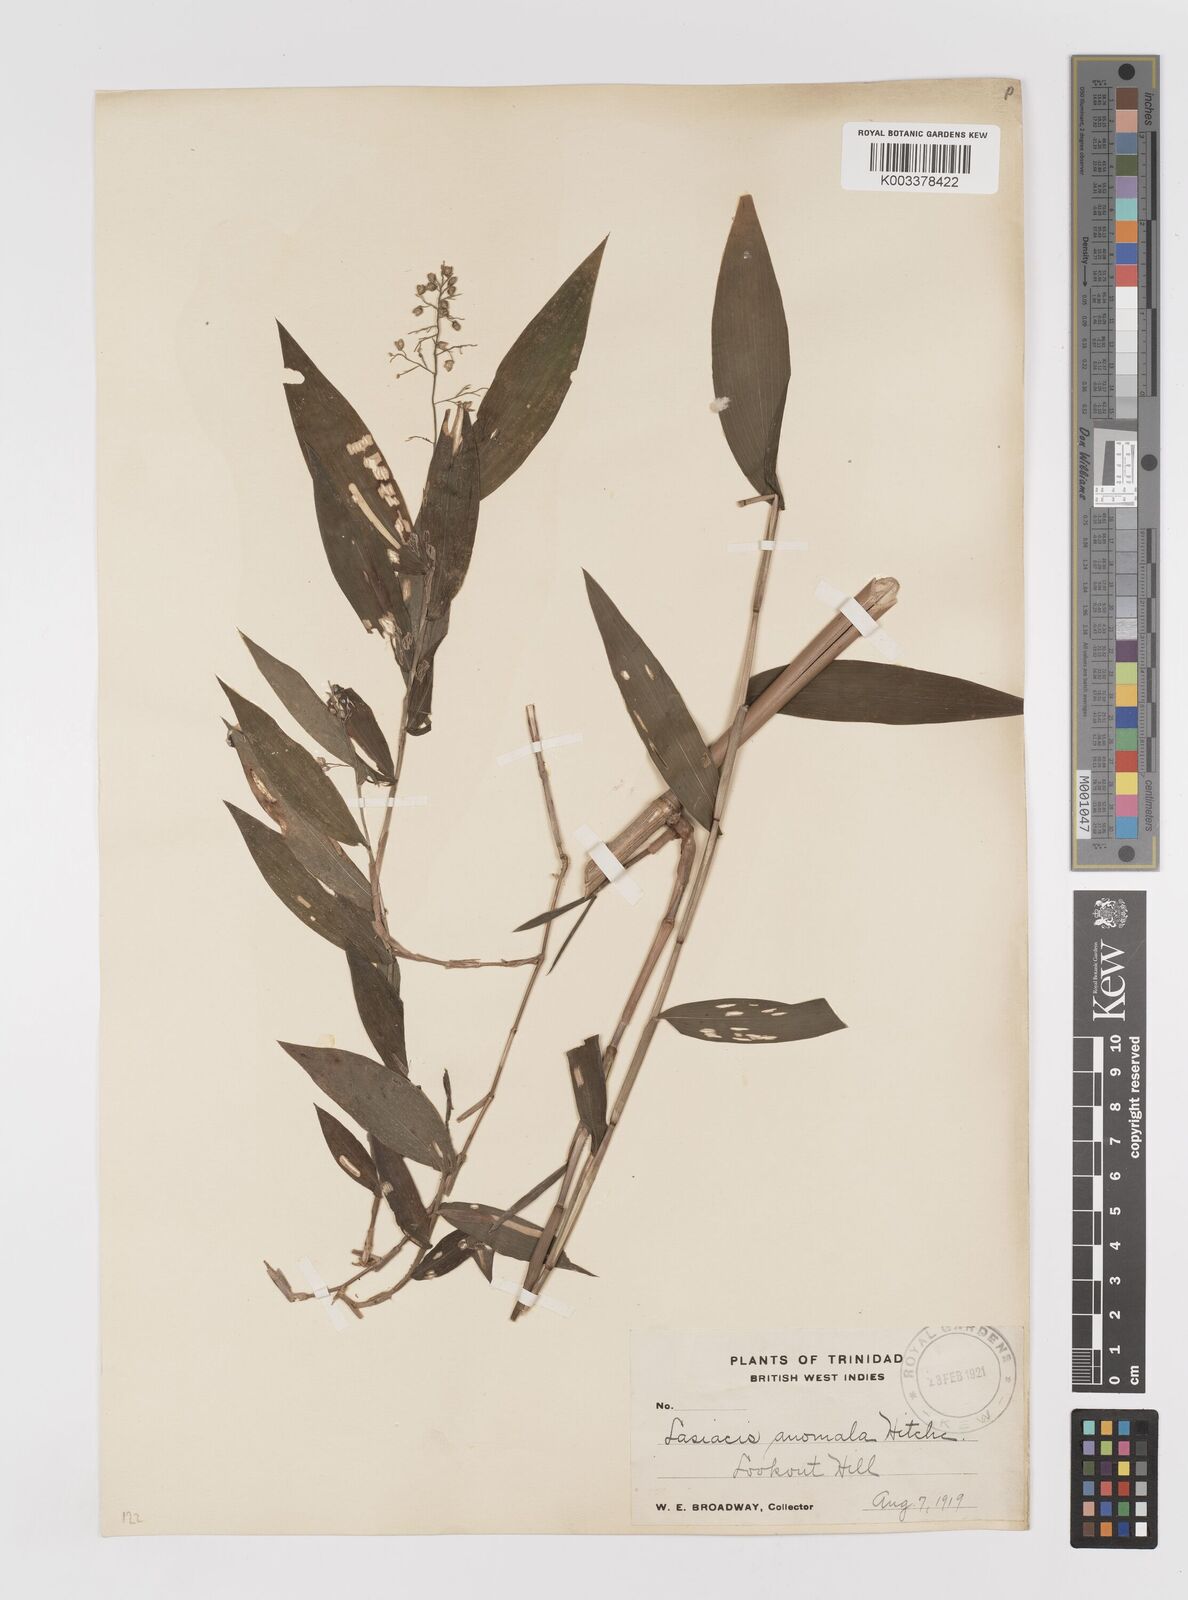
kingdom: Plantae
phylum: Tracheophyta
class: Liliopsida
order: Poales
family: Poaceae
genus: Lasiacis
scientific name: Lasiacis anomala
